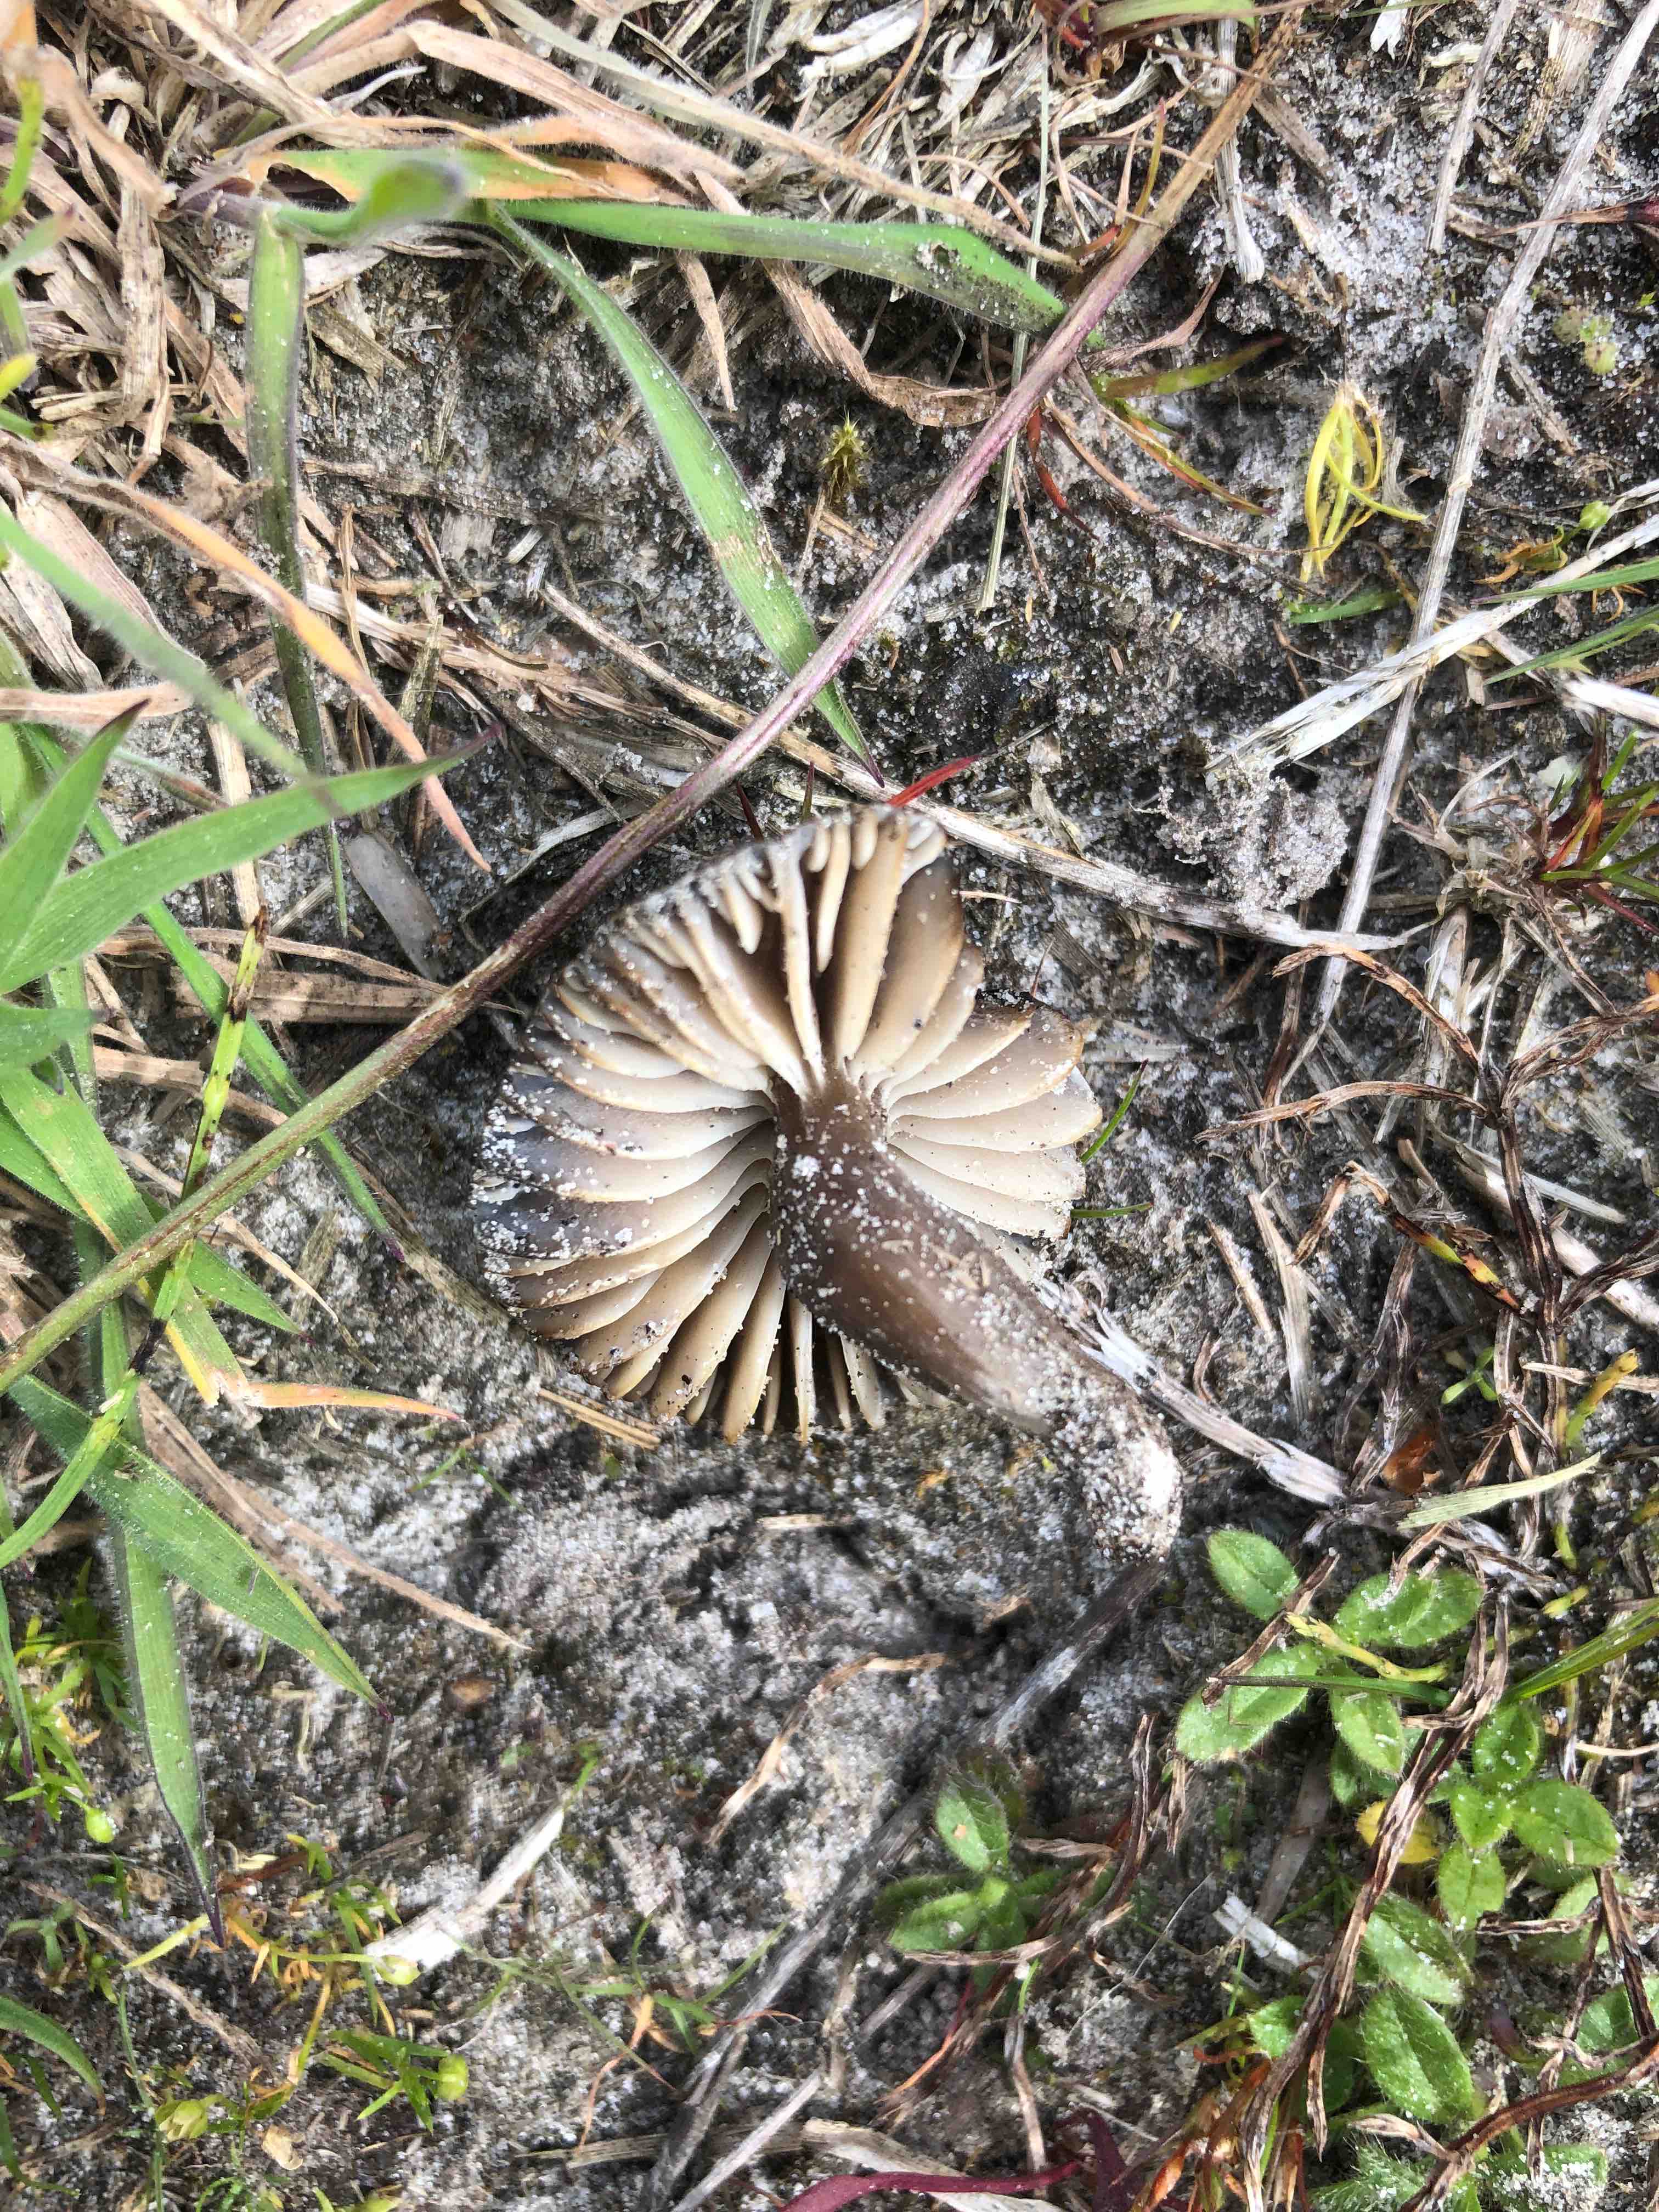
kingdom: Fungi
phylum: Basidiomycota
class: Agaricomycetes
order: Agaricales
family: Hygrophoraceae
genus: Neohygrocybe
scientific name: Neohygrocybe nitrata
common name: stinkende vokshat
